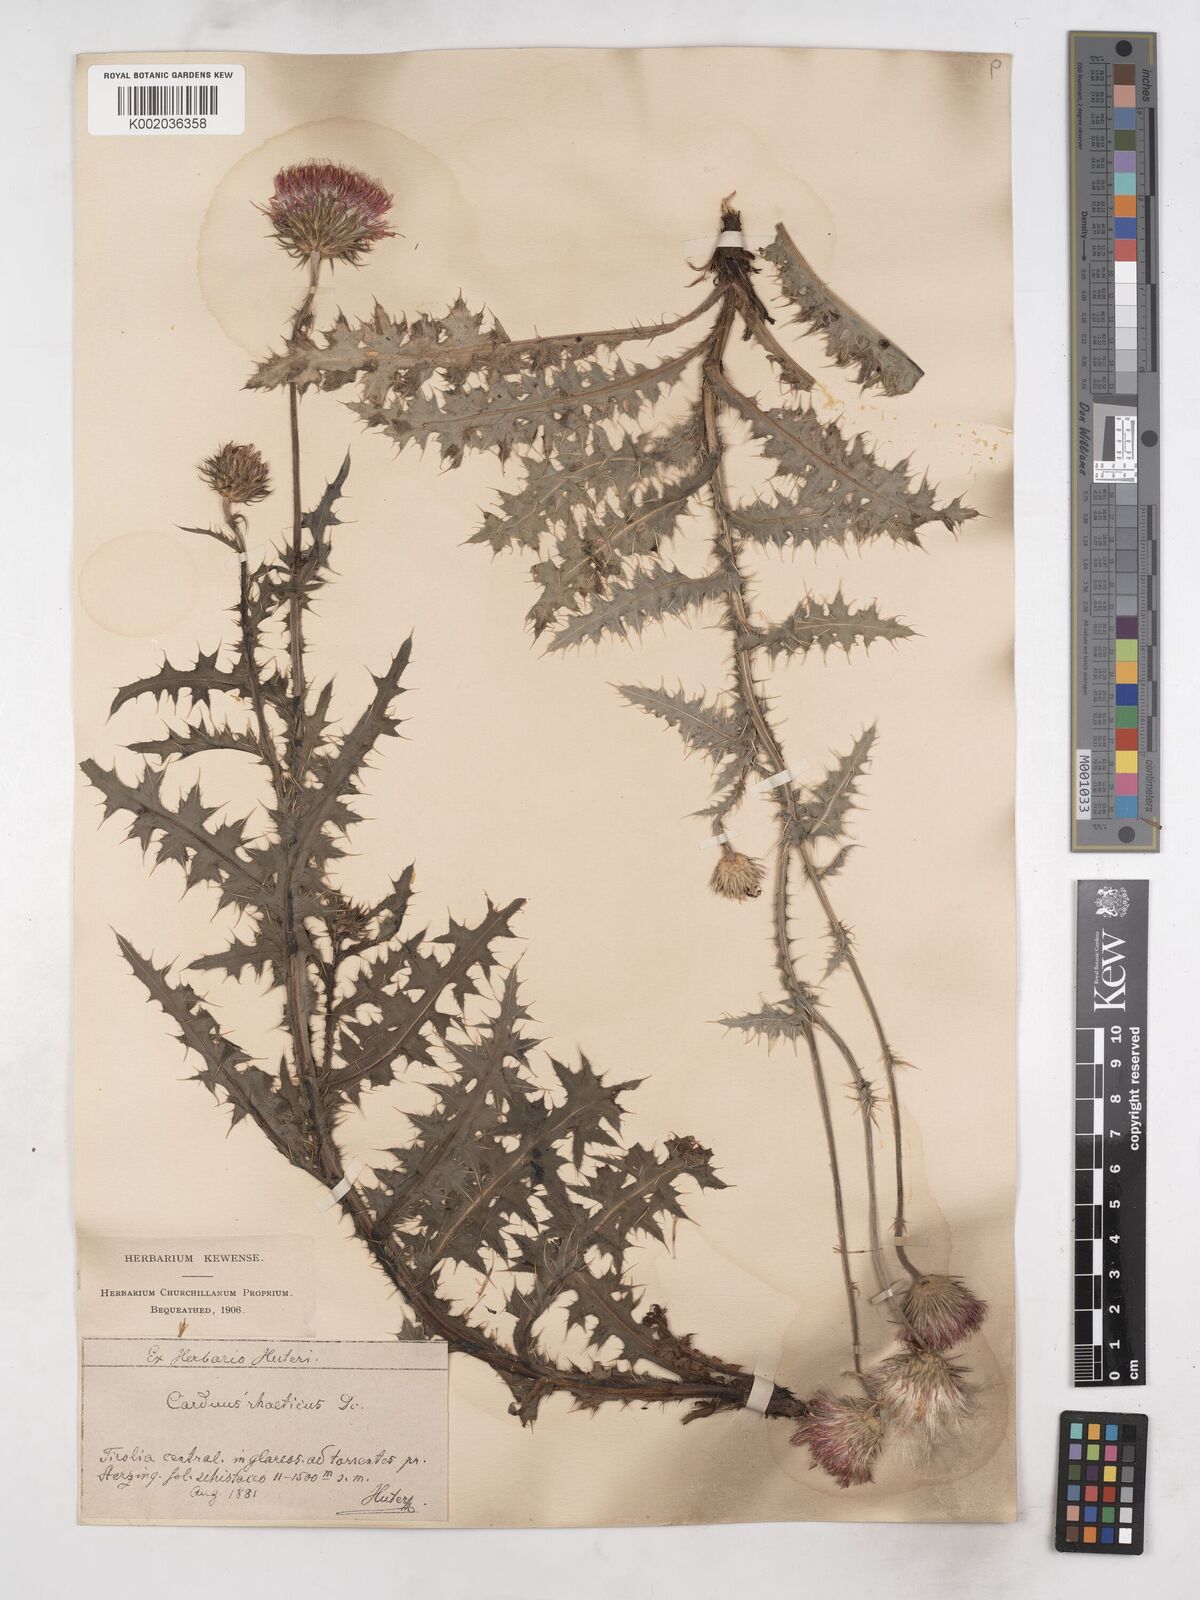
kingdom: Plantae
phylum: Tracheophyta
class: Magnoliopsida
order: Asterales
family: Asteraceae
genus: Carduus
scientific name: Carduus defloratus
